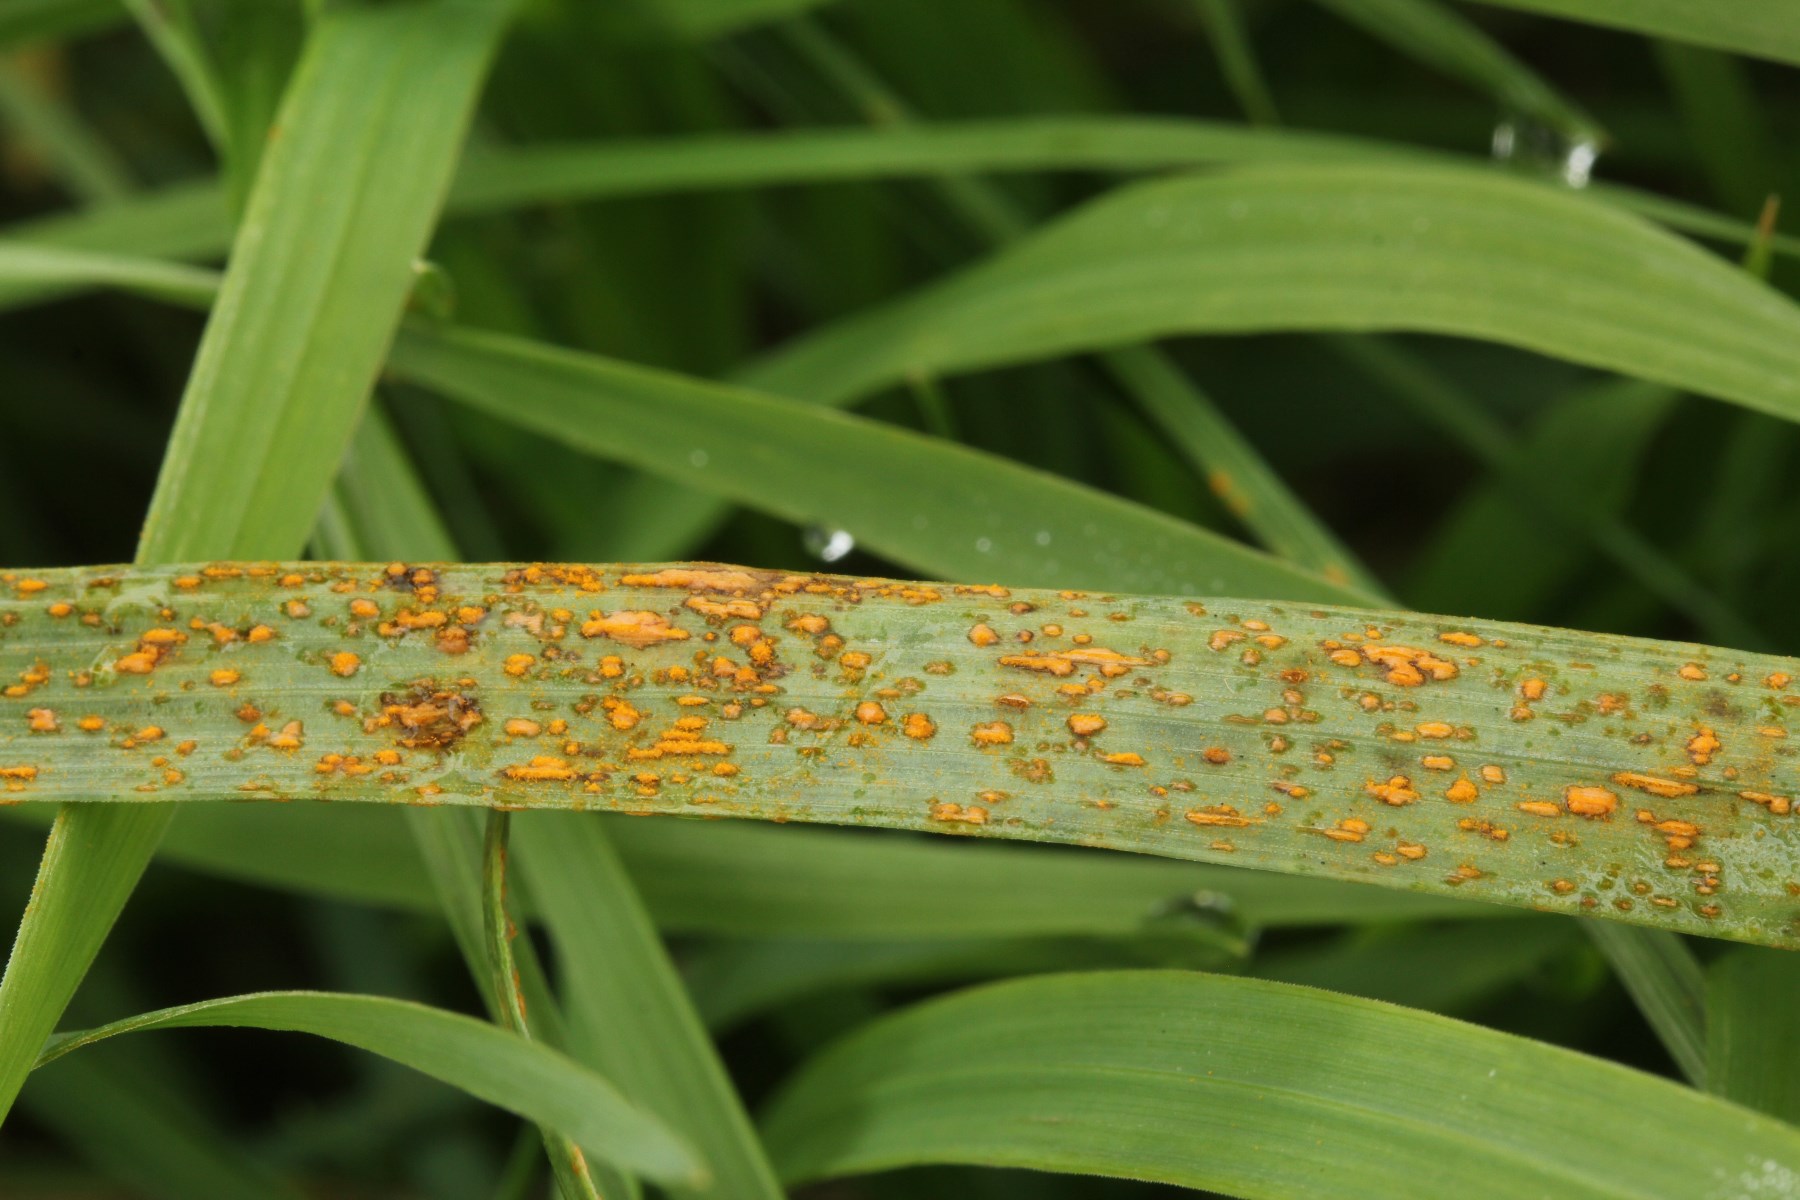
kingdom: Fungi
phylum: Basidiomycota
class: Pucciniomycetes
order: Pucciniales
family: Pucciniaceae
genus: Puccinia
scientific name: Puccinia
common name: tvecellerust
